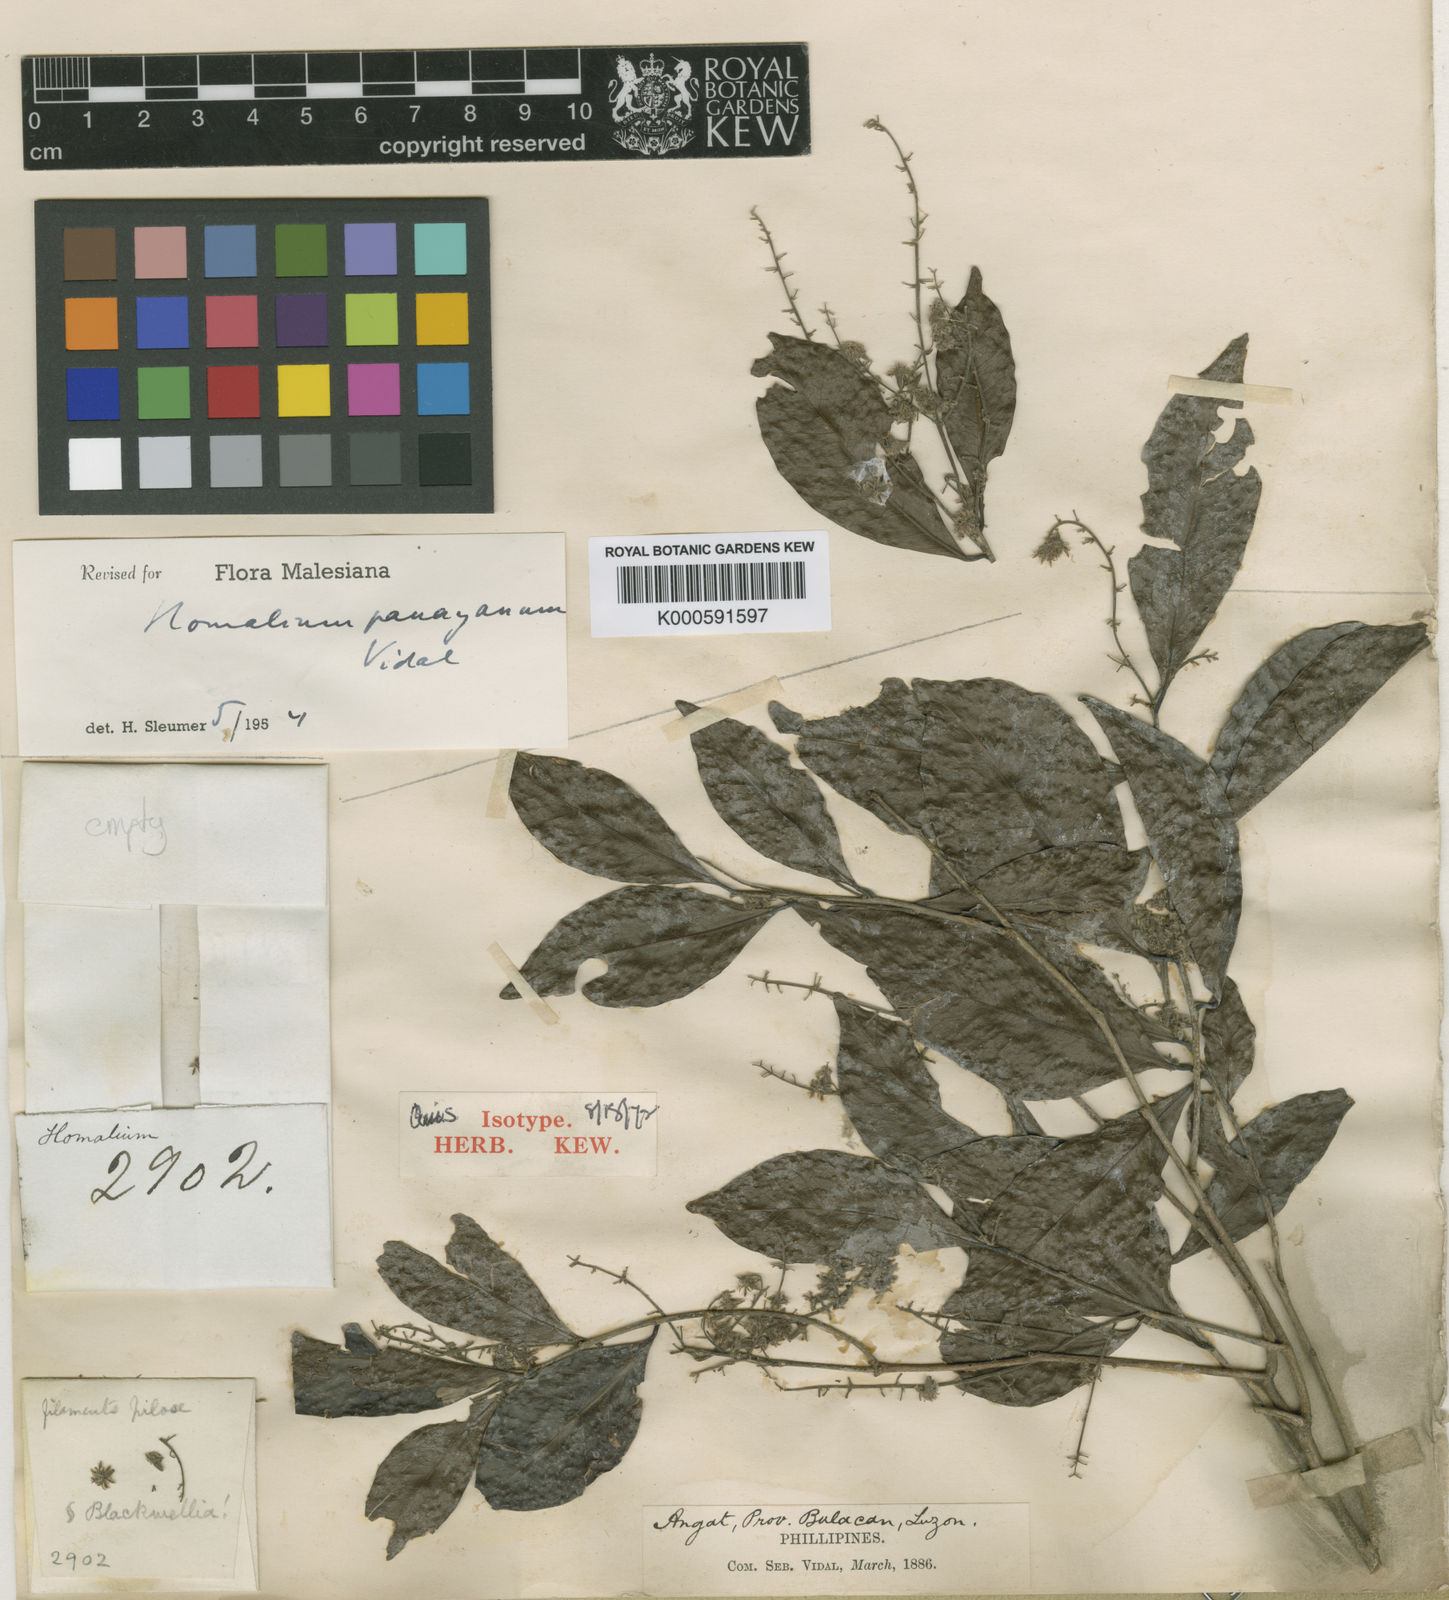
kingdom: Plantae
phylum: Tracheophyta
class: Magnoliopsida
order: Malpighiales
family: Salicaceae
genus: Homalium
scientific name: Homalium
